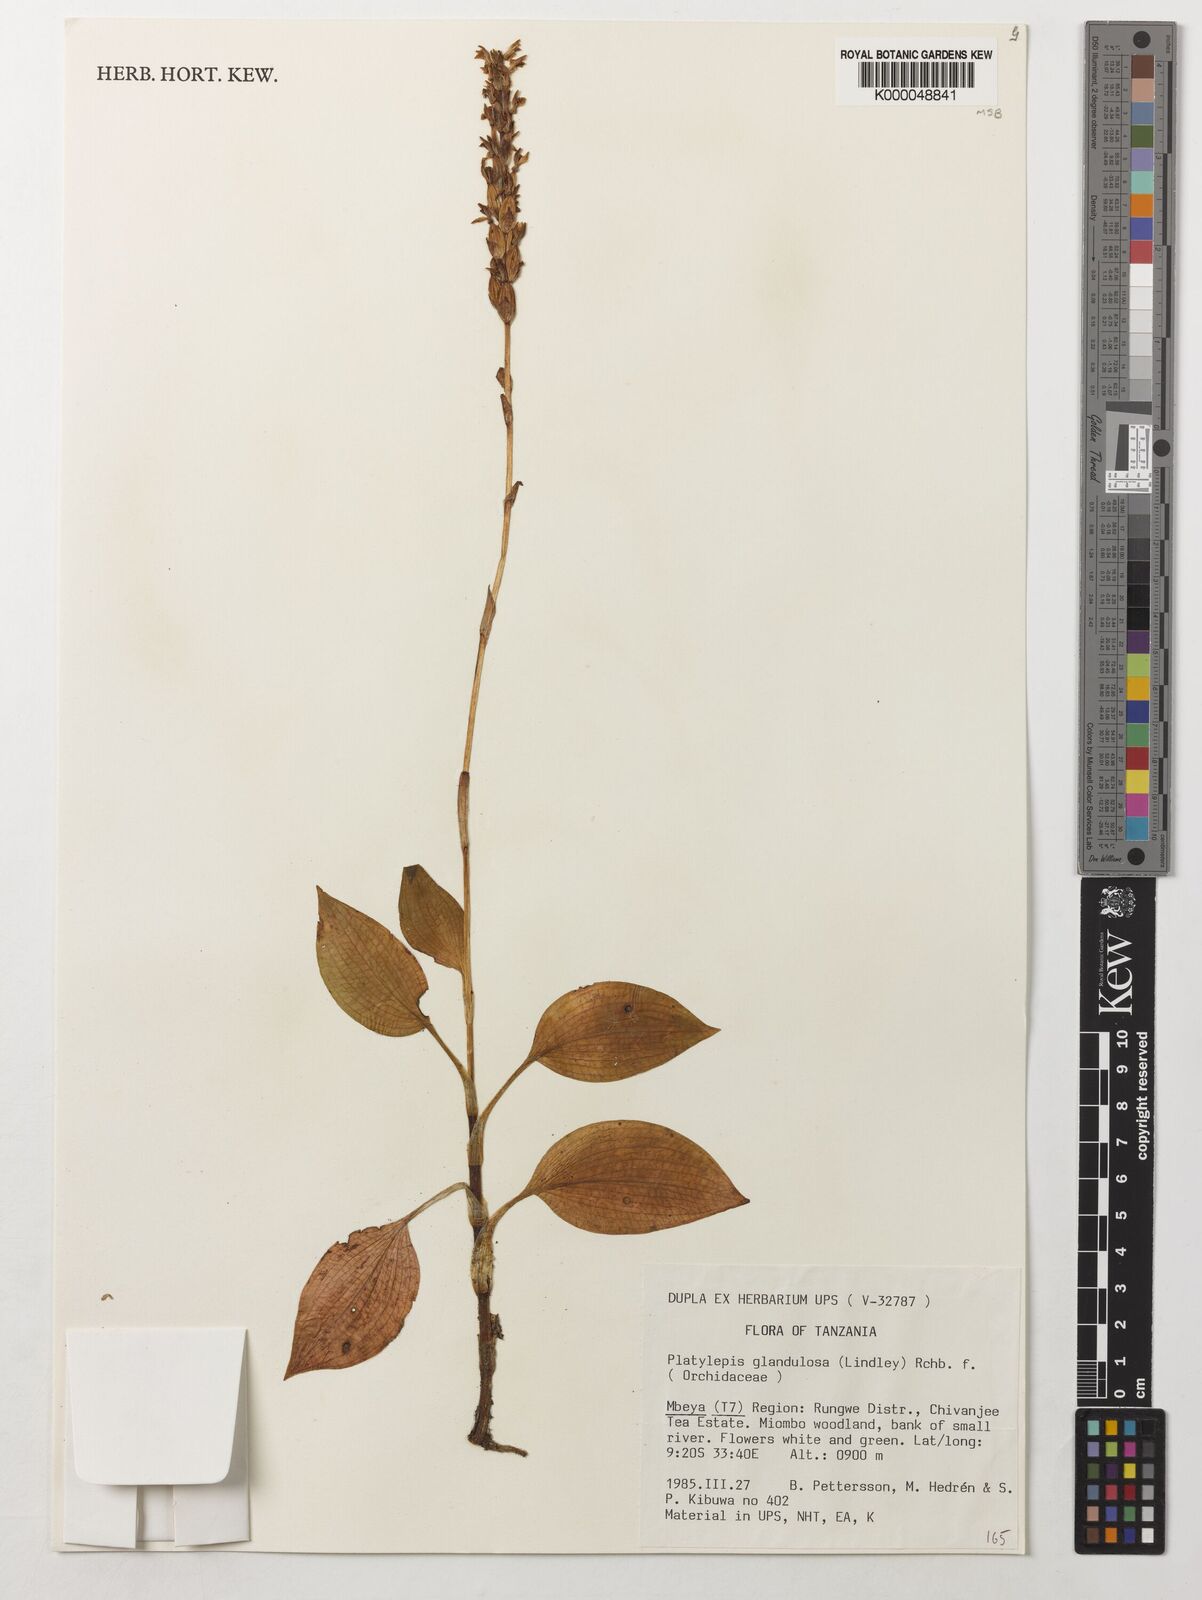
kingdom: Plantae
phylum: Tracheophyta
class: Liliopsida
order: Asparagales
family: Orchidaceae
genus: Platylepis
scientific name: Platylepis glandulosa
